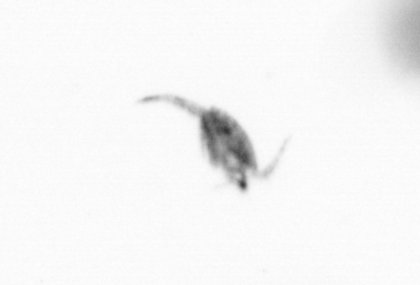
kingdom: Animalia
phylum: Arthropoda
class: Copepoda
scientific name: Copepoda
